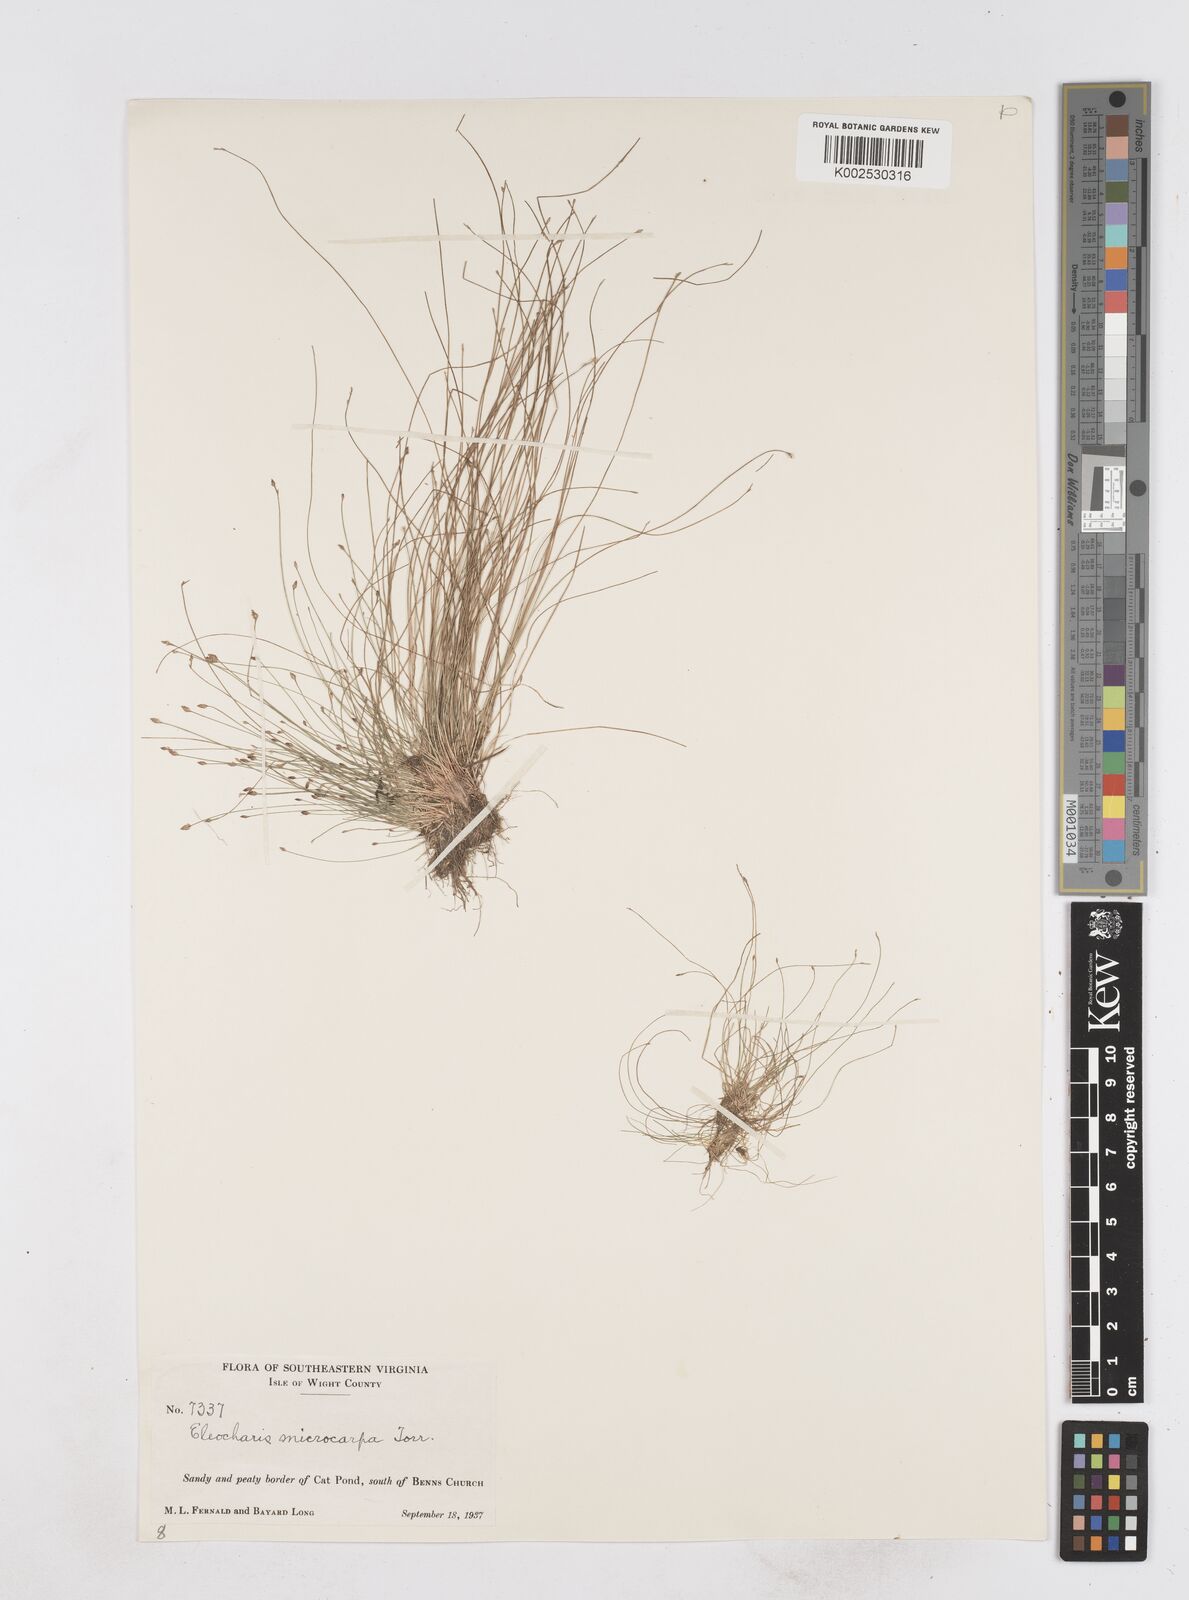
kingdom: Plantae
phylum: Tracheophyta
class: Liliopsida
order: Poales
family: Cyperaceae
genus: Eleocharis
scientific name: Eleocharis microcarpa
